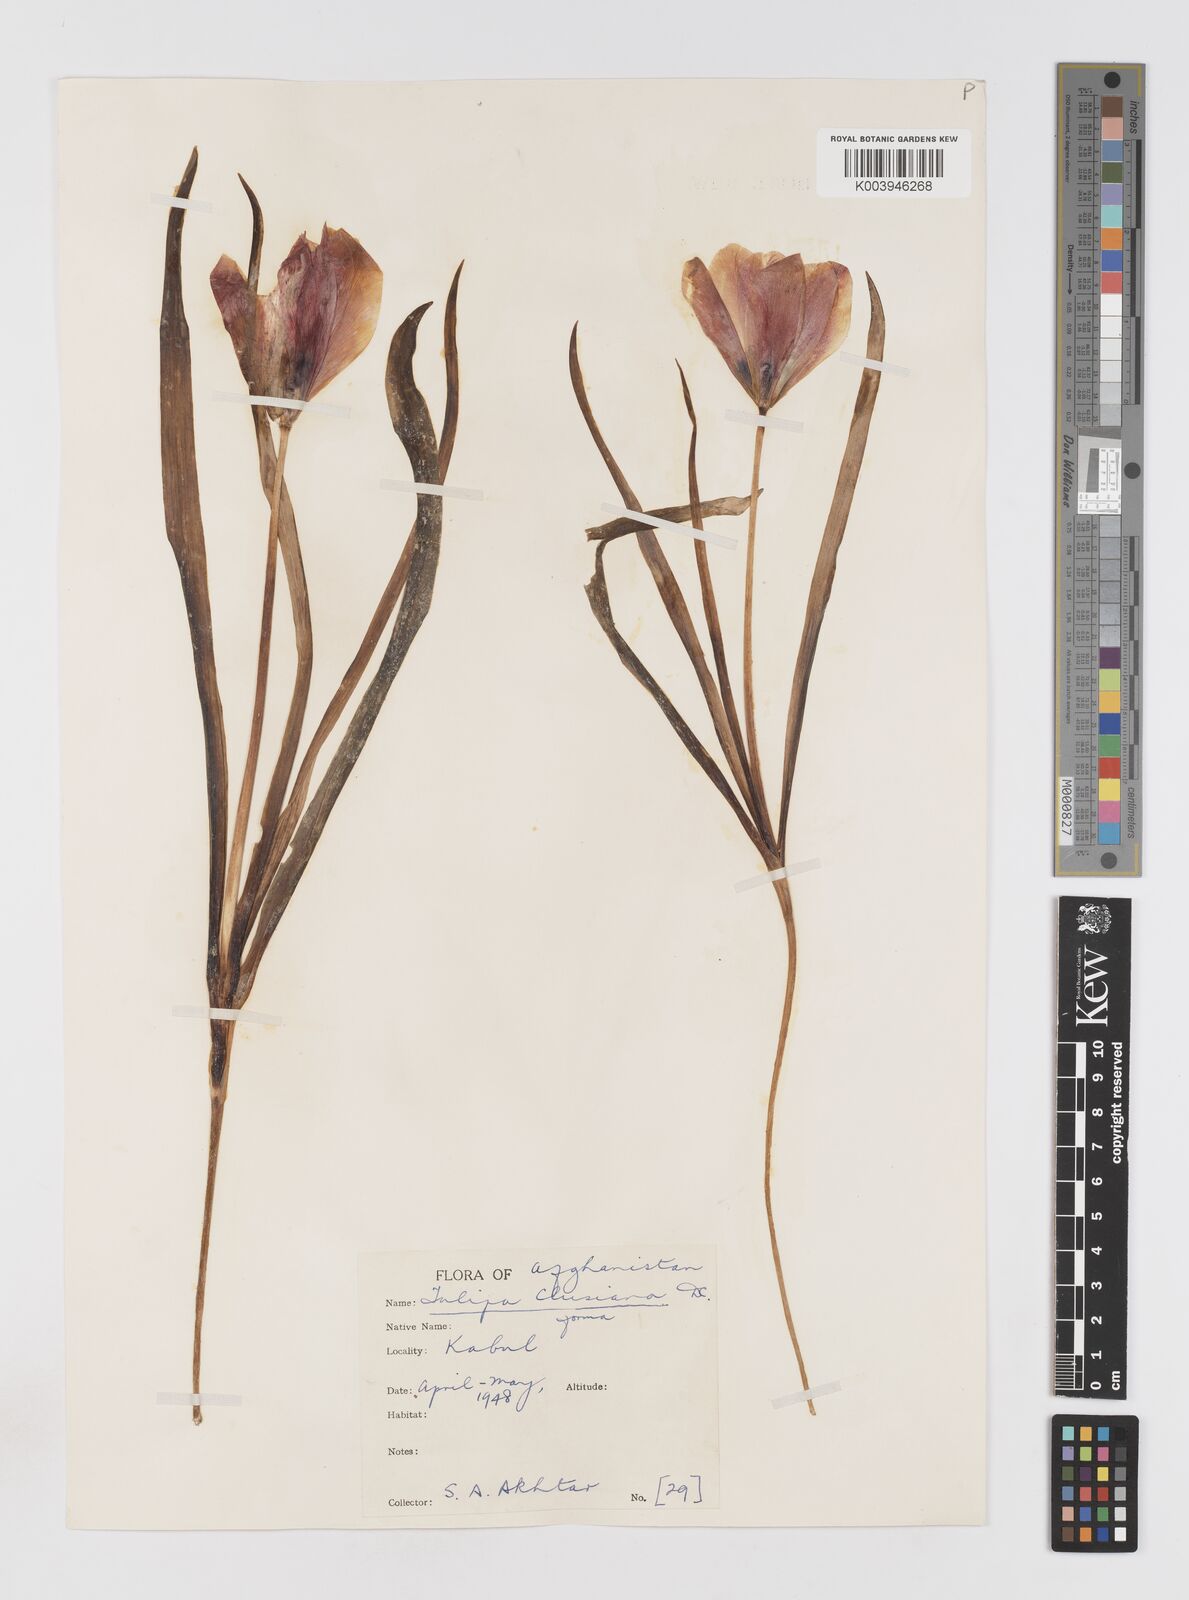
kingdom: Plantae
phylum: Tracheophyta
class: Liliopsida
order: Liliales
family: Liliaceae
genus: Tulipa
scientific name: Tulipa clusiana
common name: Lady tulip
